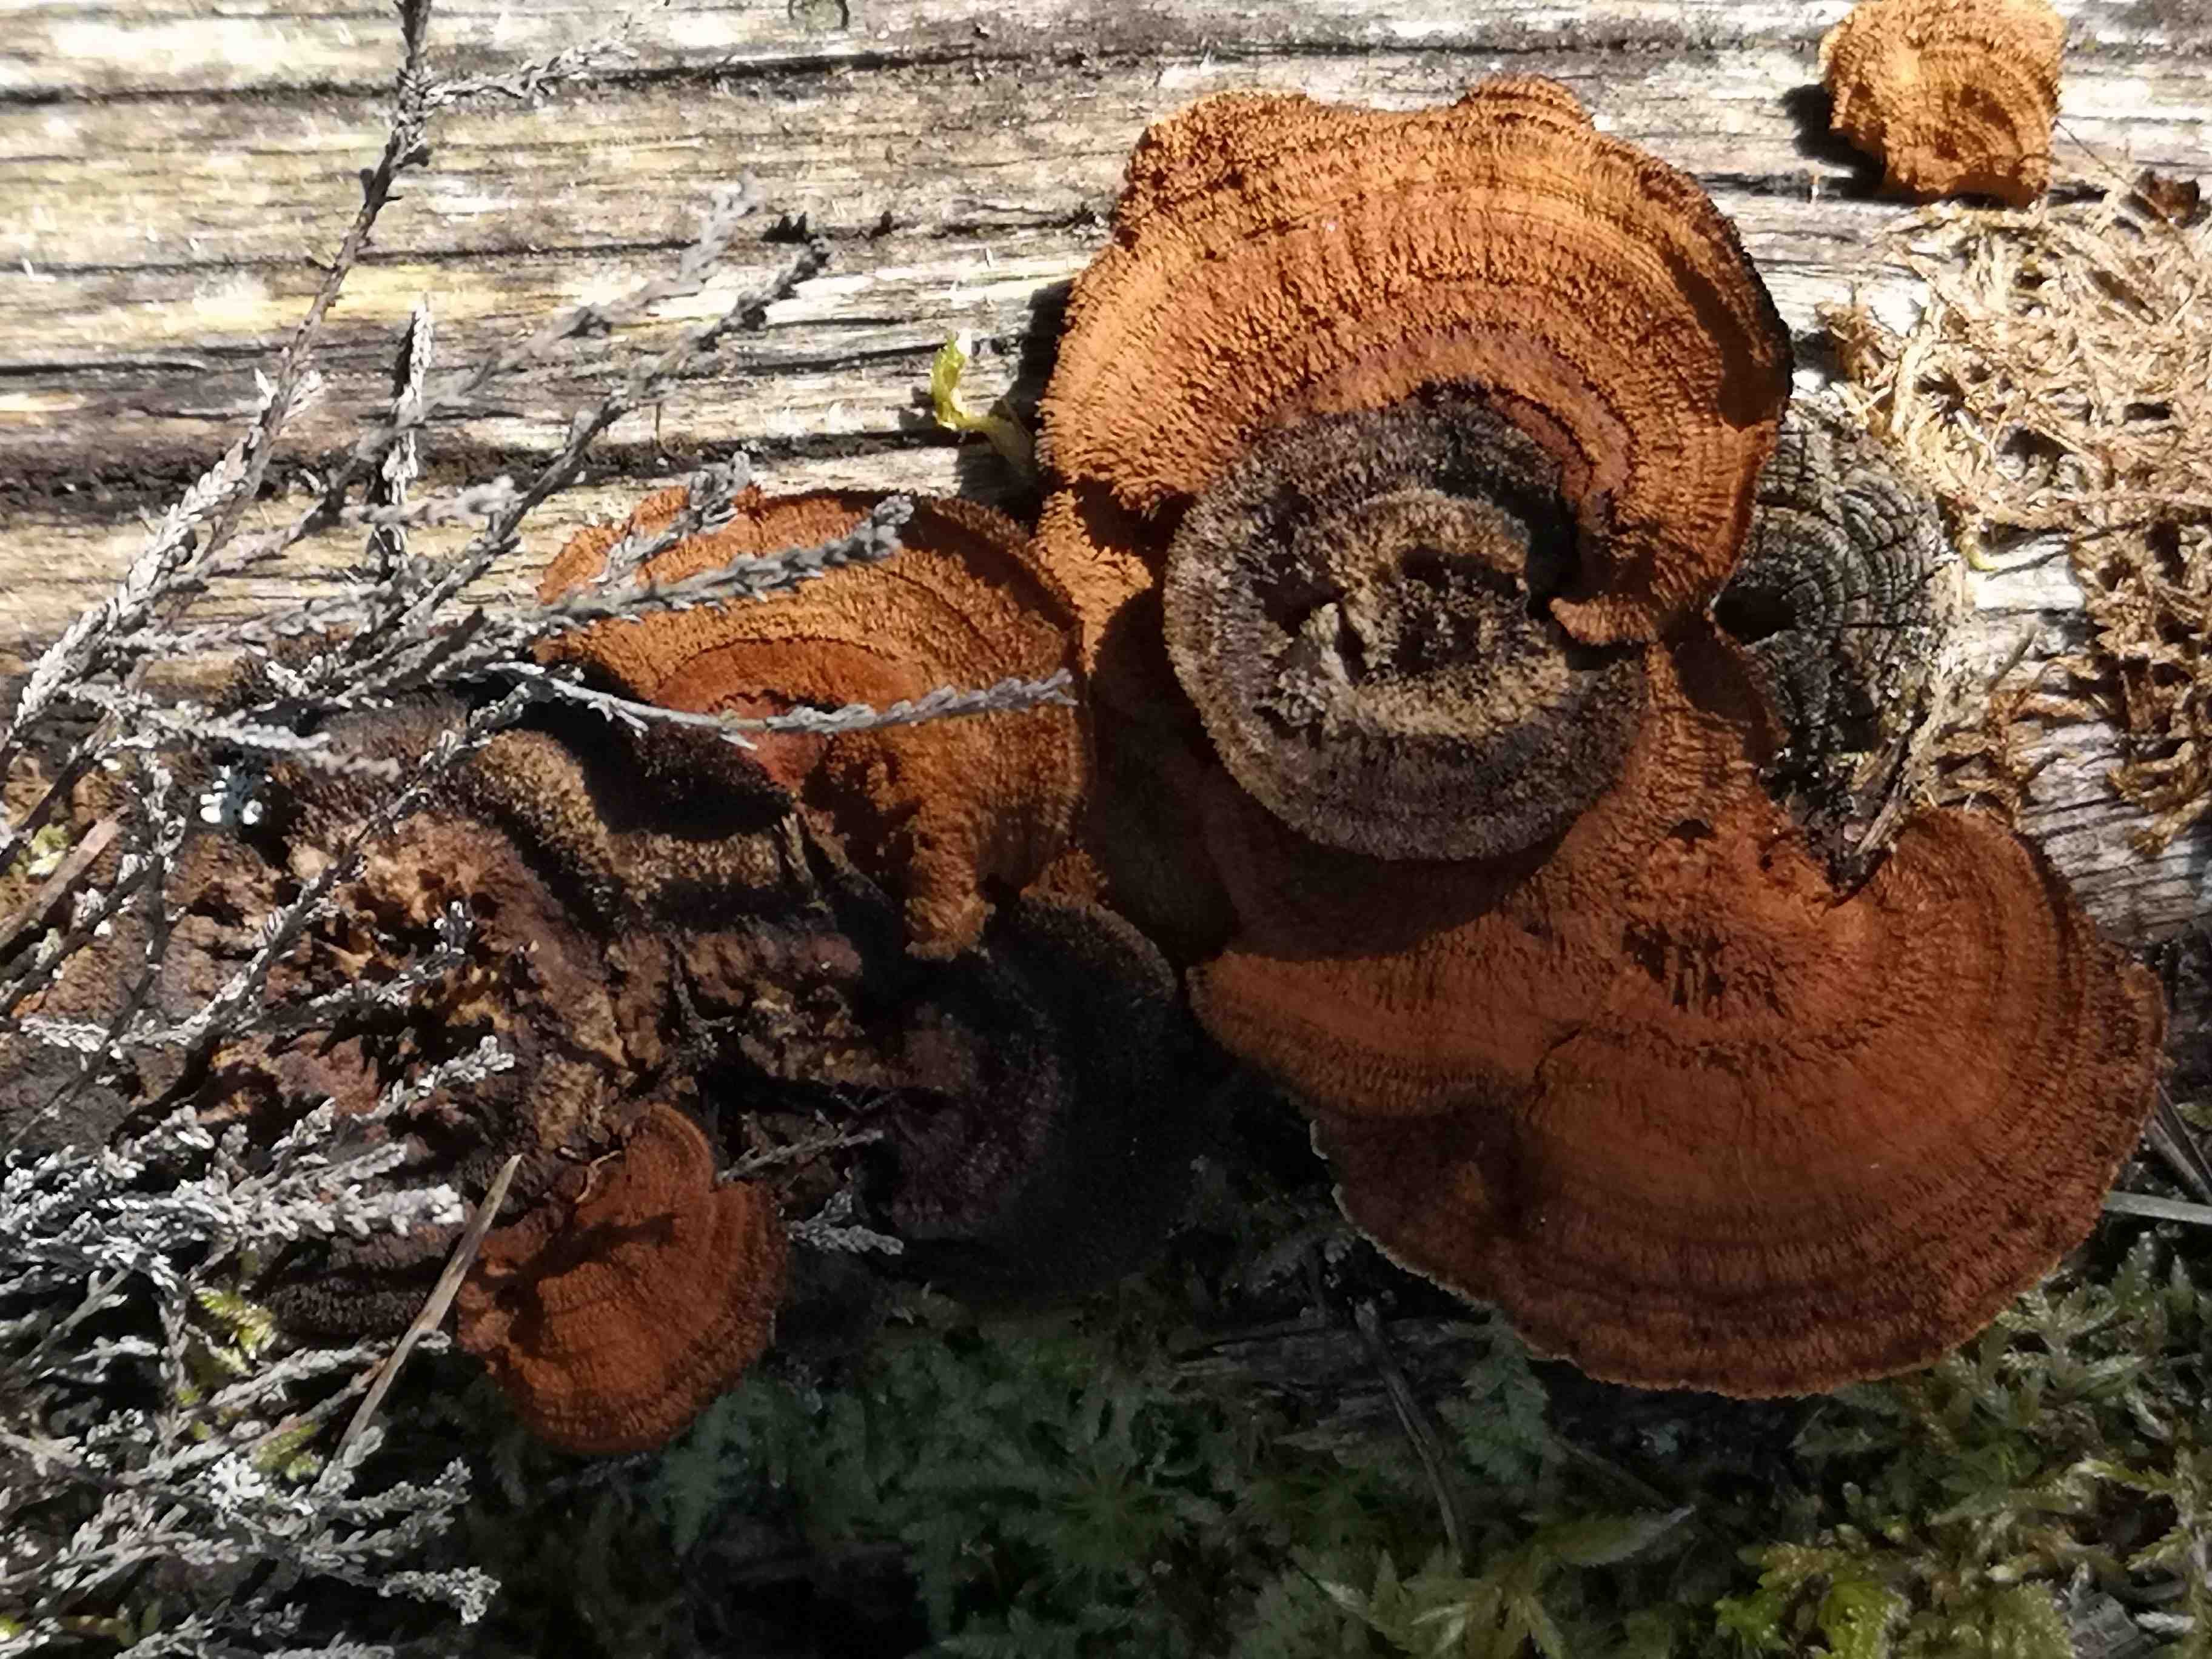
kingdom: Fungi
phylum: Basidiomycota
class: Agaricomycetes
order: Gloeophyllales
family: Gloeophyllaceae
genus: Gloeophyllum
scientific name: Gloeophyllum sepiarium
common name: fyrre-korkhat
